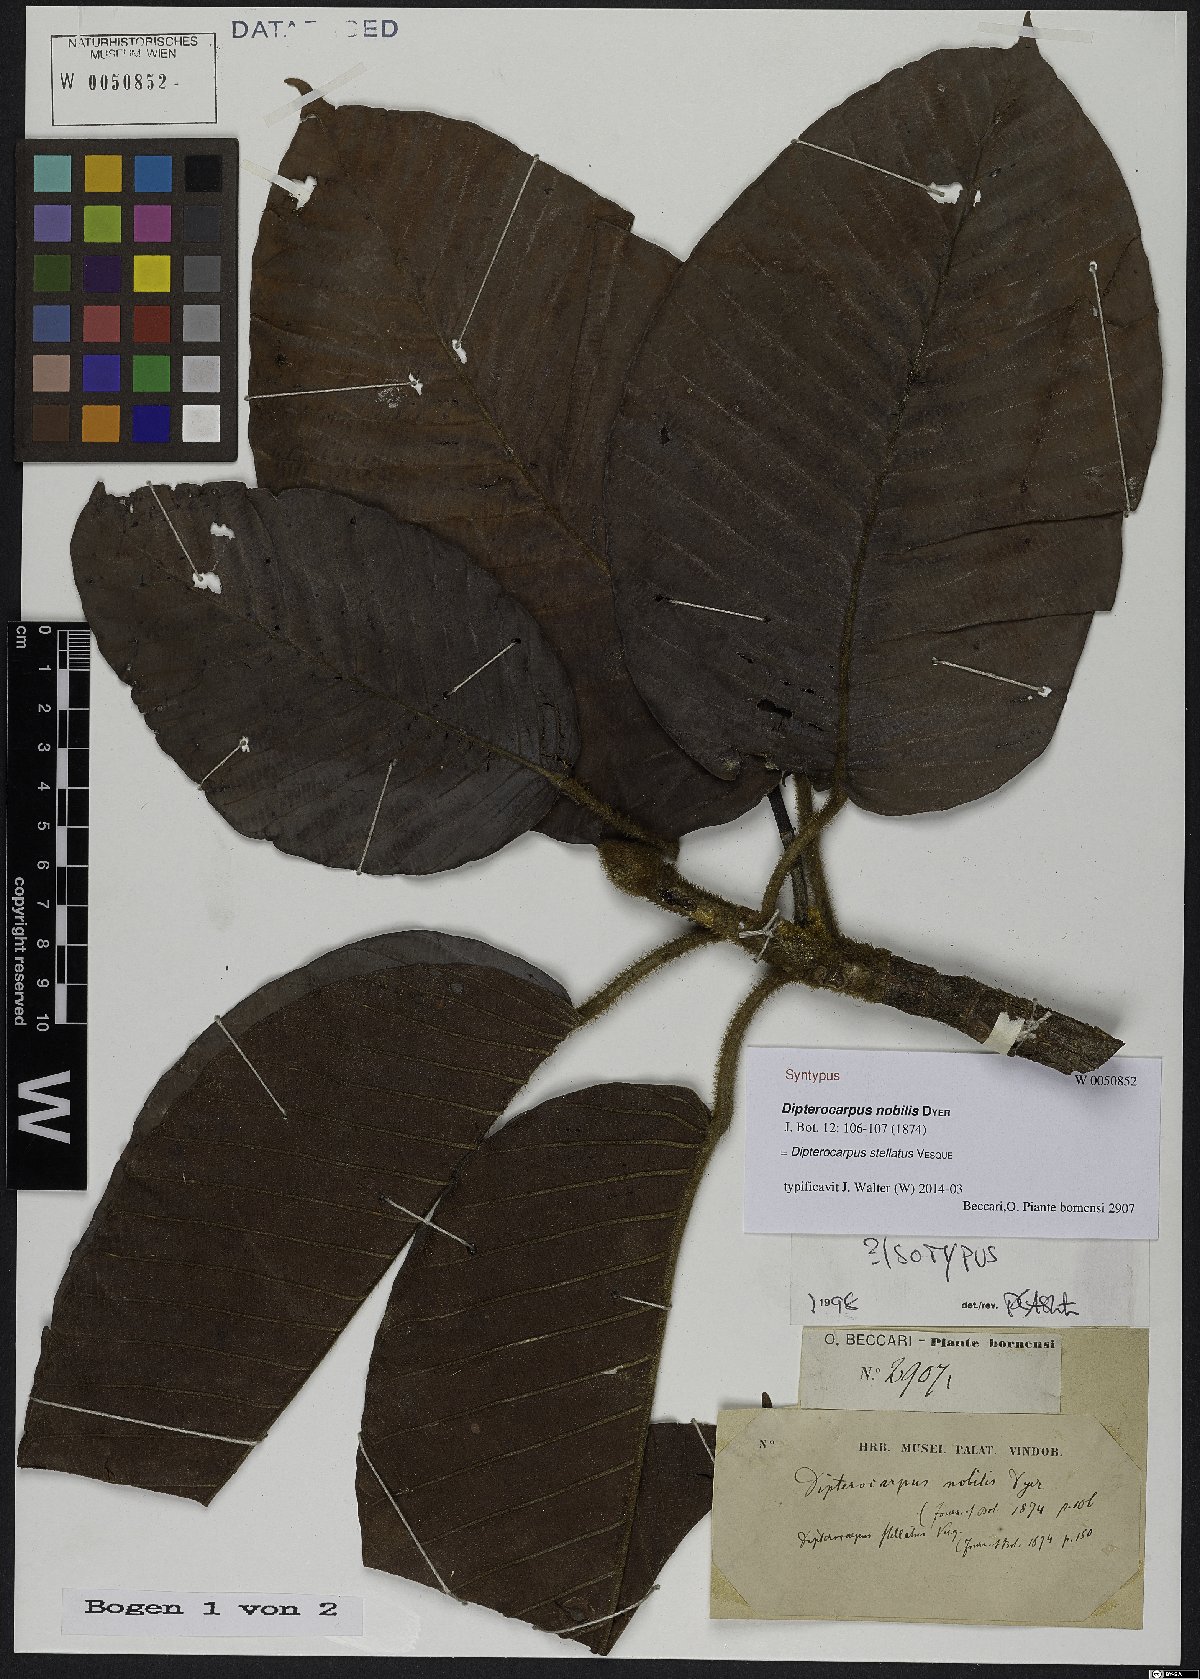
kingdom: Plantae
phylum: Tracheophyta
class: Magnoliopsida
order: Malvales
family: Dipterocarpaceae
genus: Dipterocarpus
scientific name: Dipterocarpus stellatus
